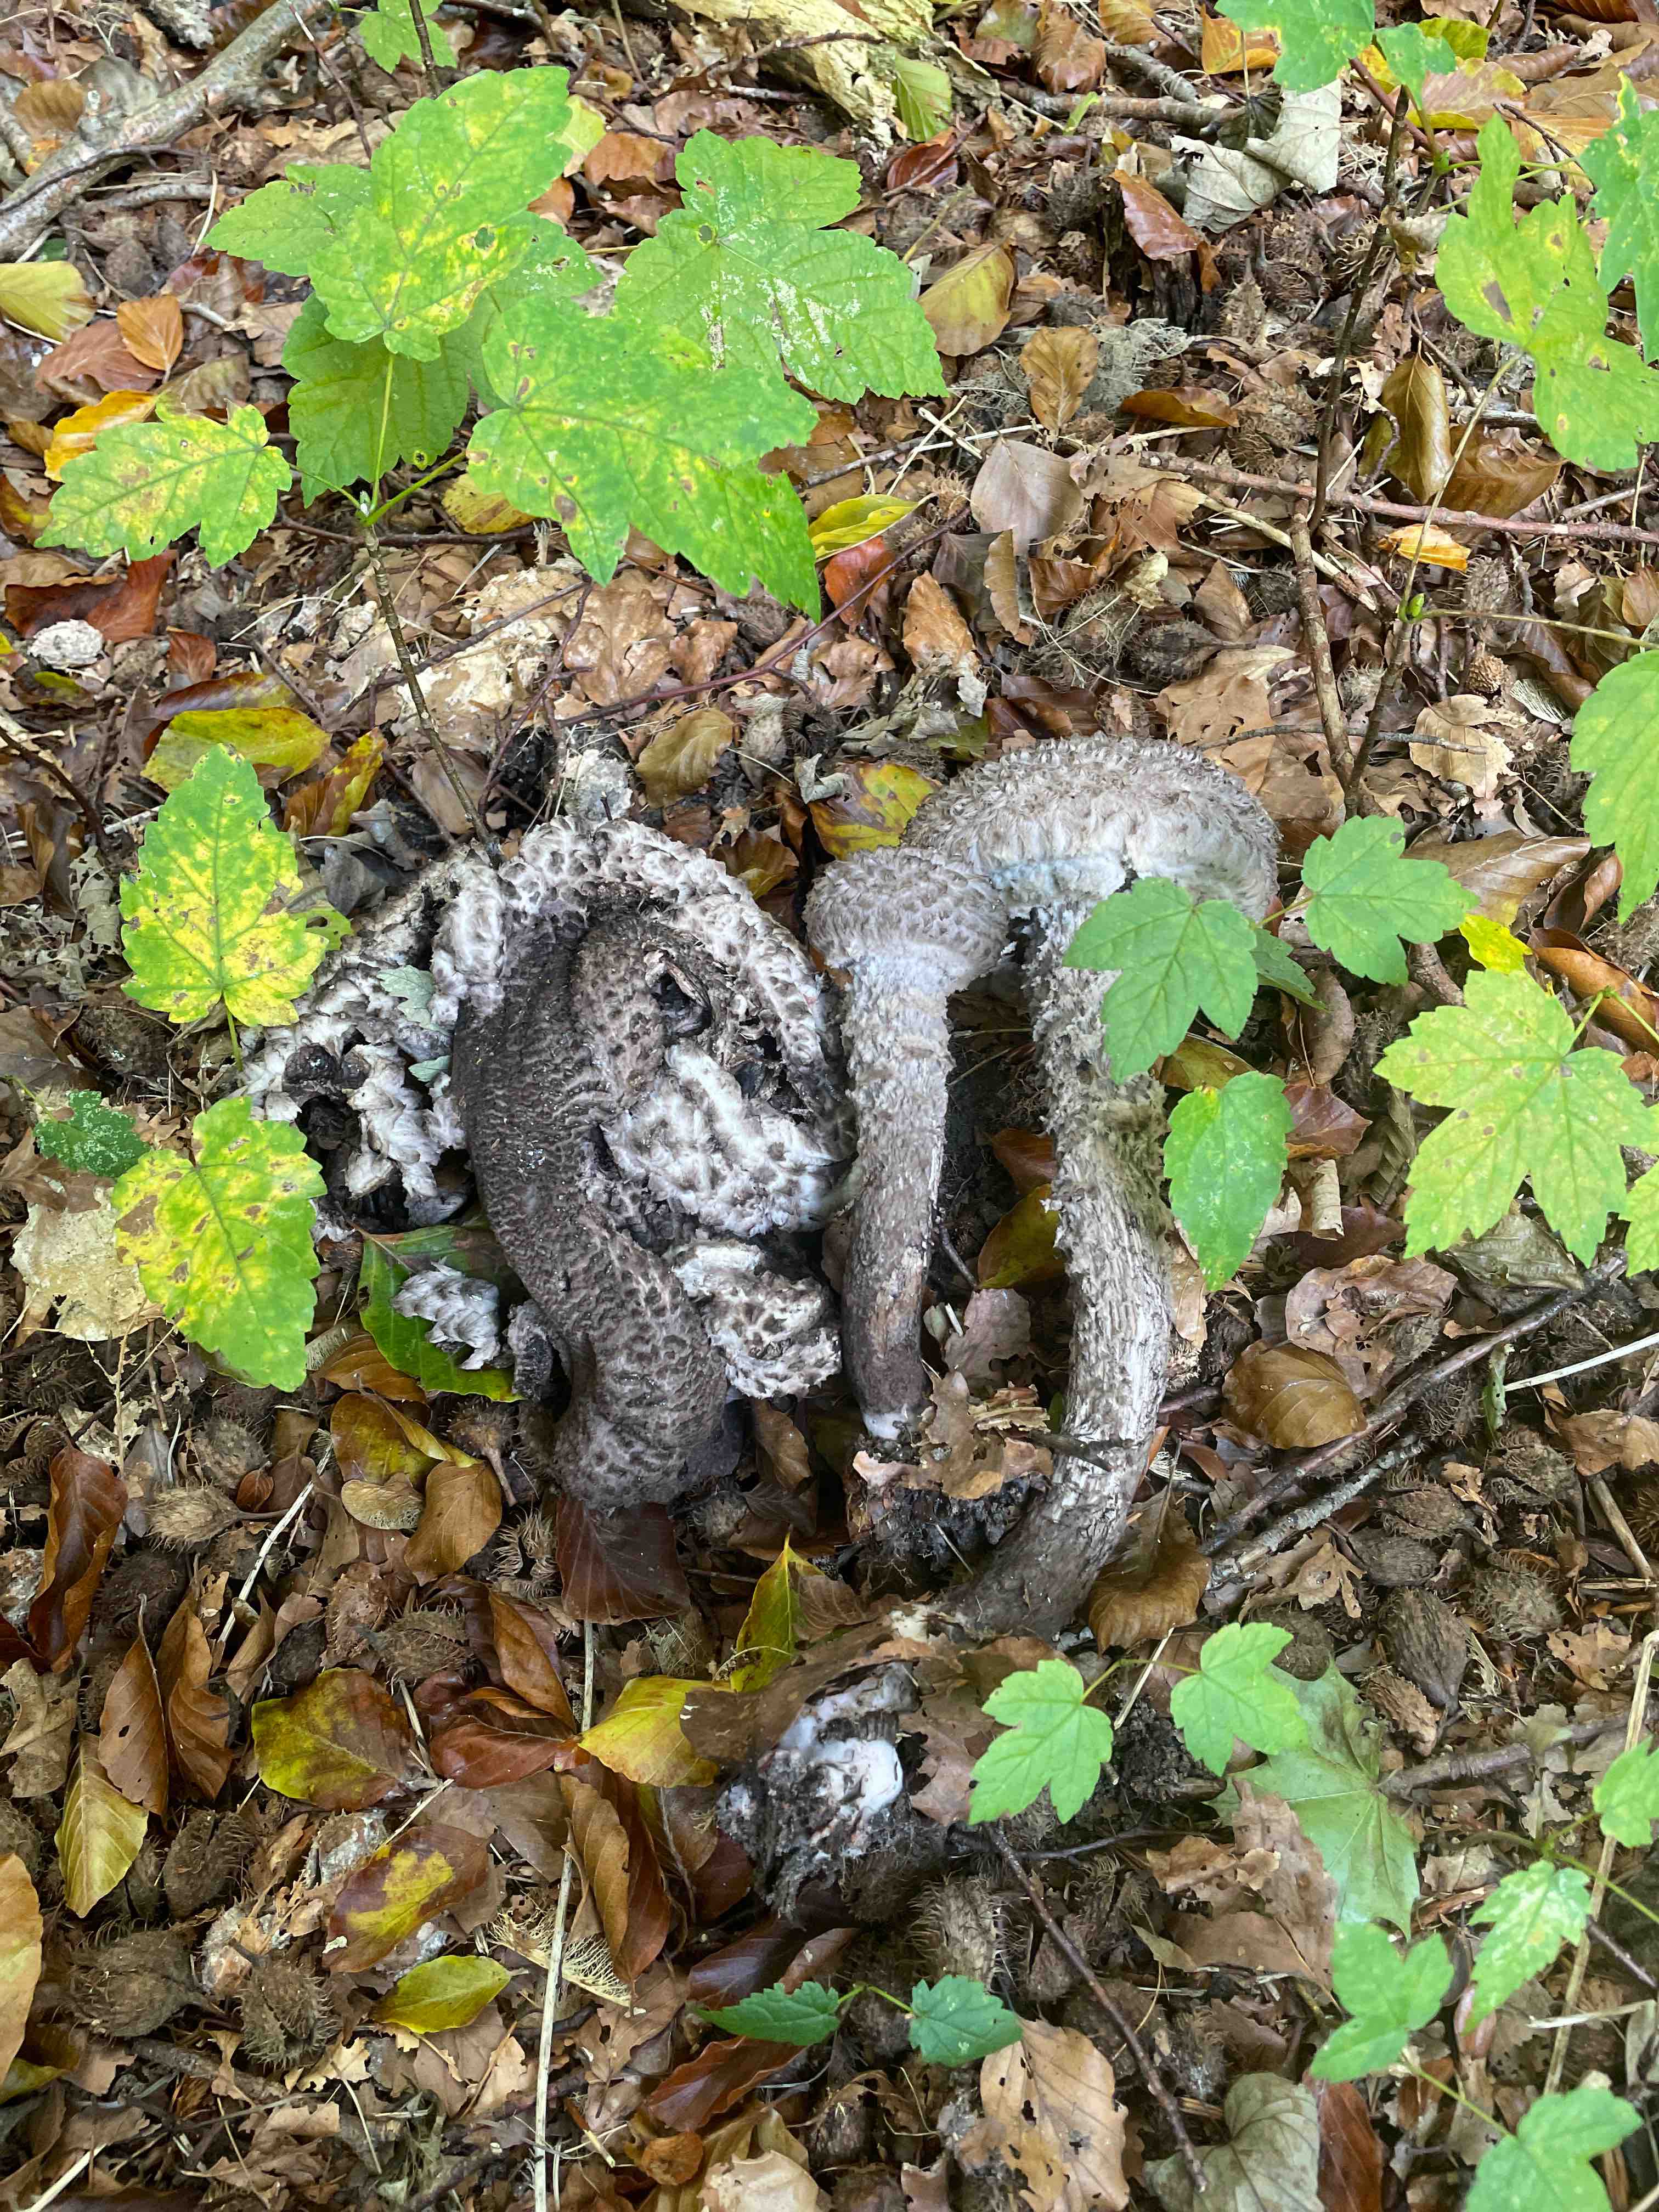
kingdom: Fungi
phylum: Basidiomycota
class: Agaricomycetes
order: Boletales
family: Boletaceae
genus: Strobilomyces
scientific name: Strobilomyces strobilaceus
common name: koglerørhat
